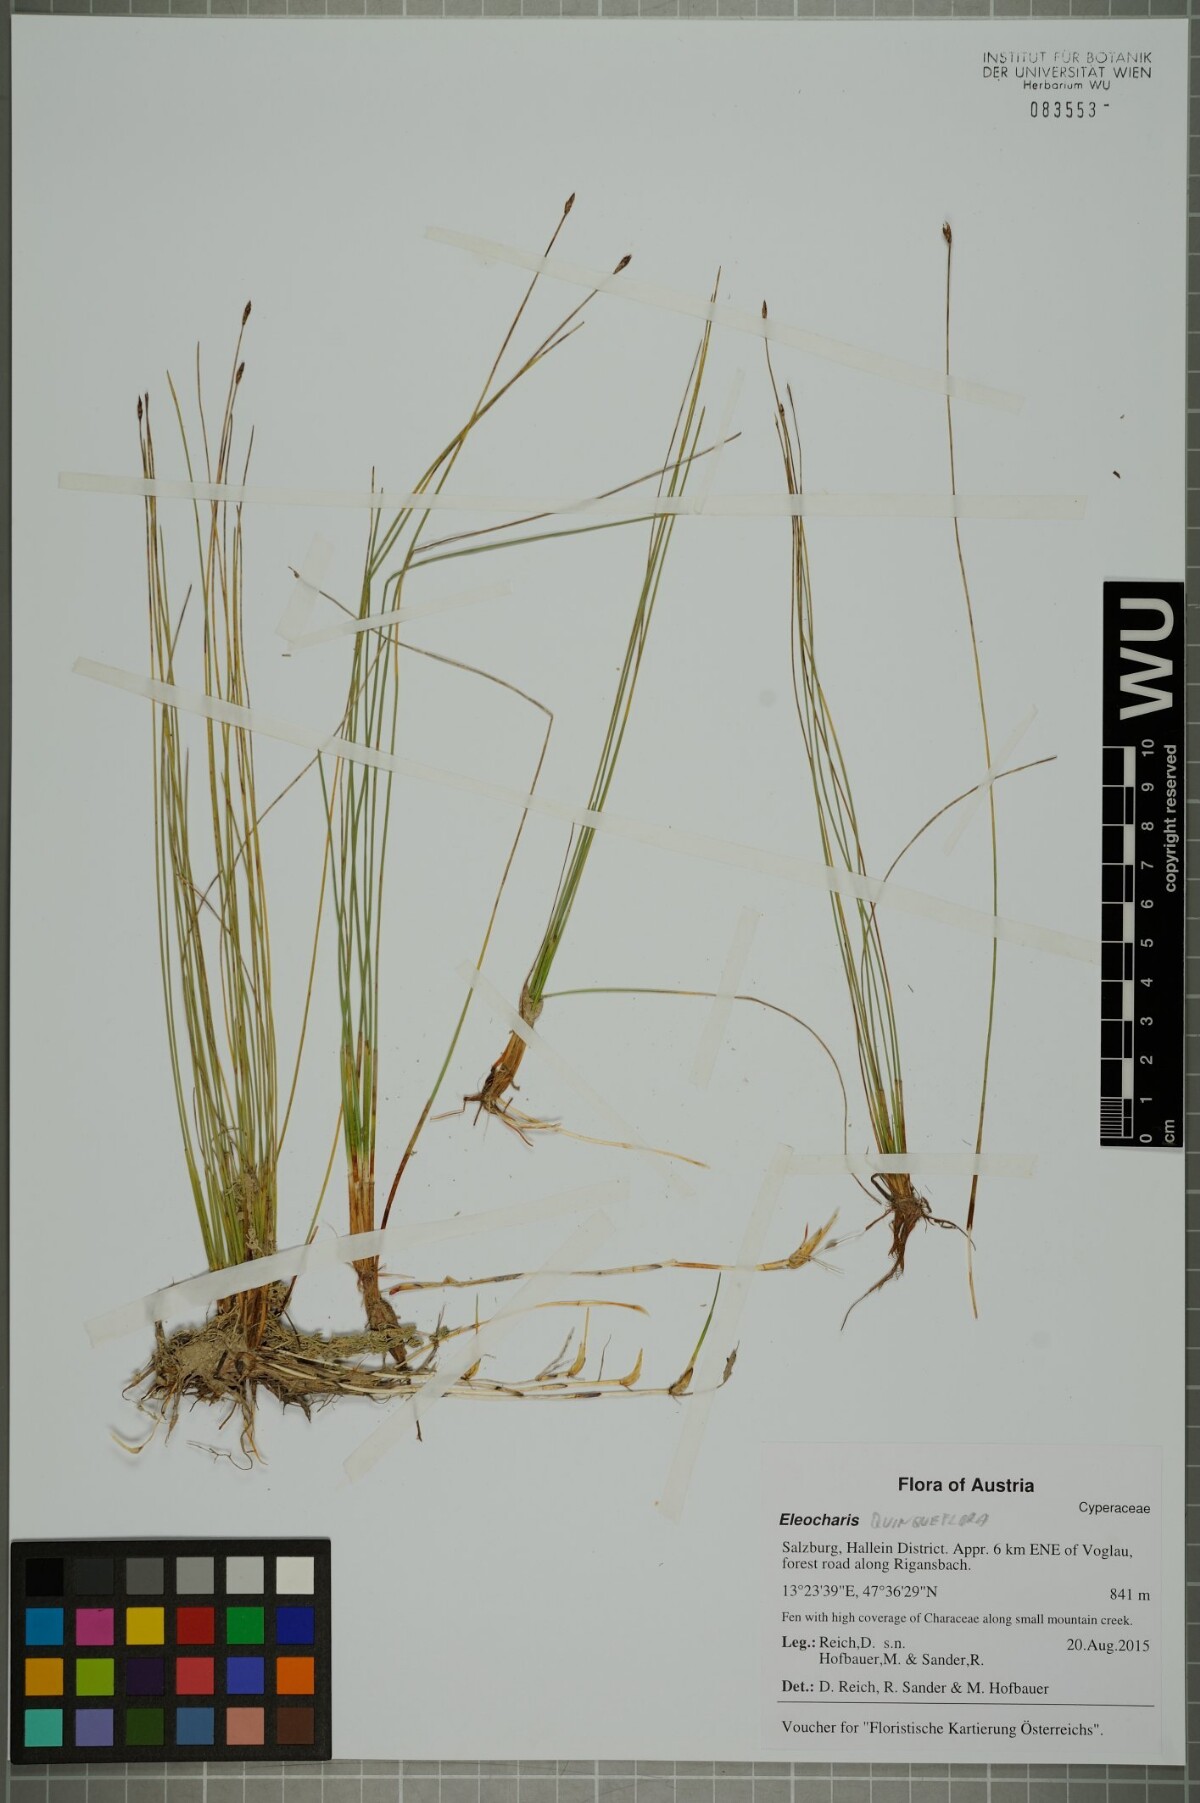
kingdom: Plantae
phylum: Tracheophyta
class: Liliopsida
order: Poales
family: Cyperaceae
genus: Eleocharis
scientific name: Eleocharis quinqueflora
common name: Few-flowered spike-rush
